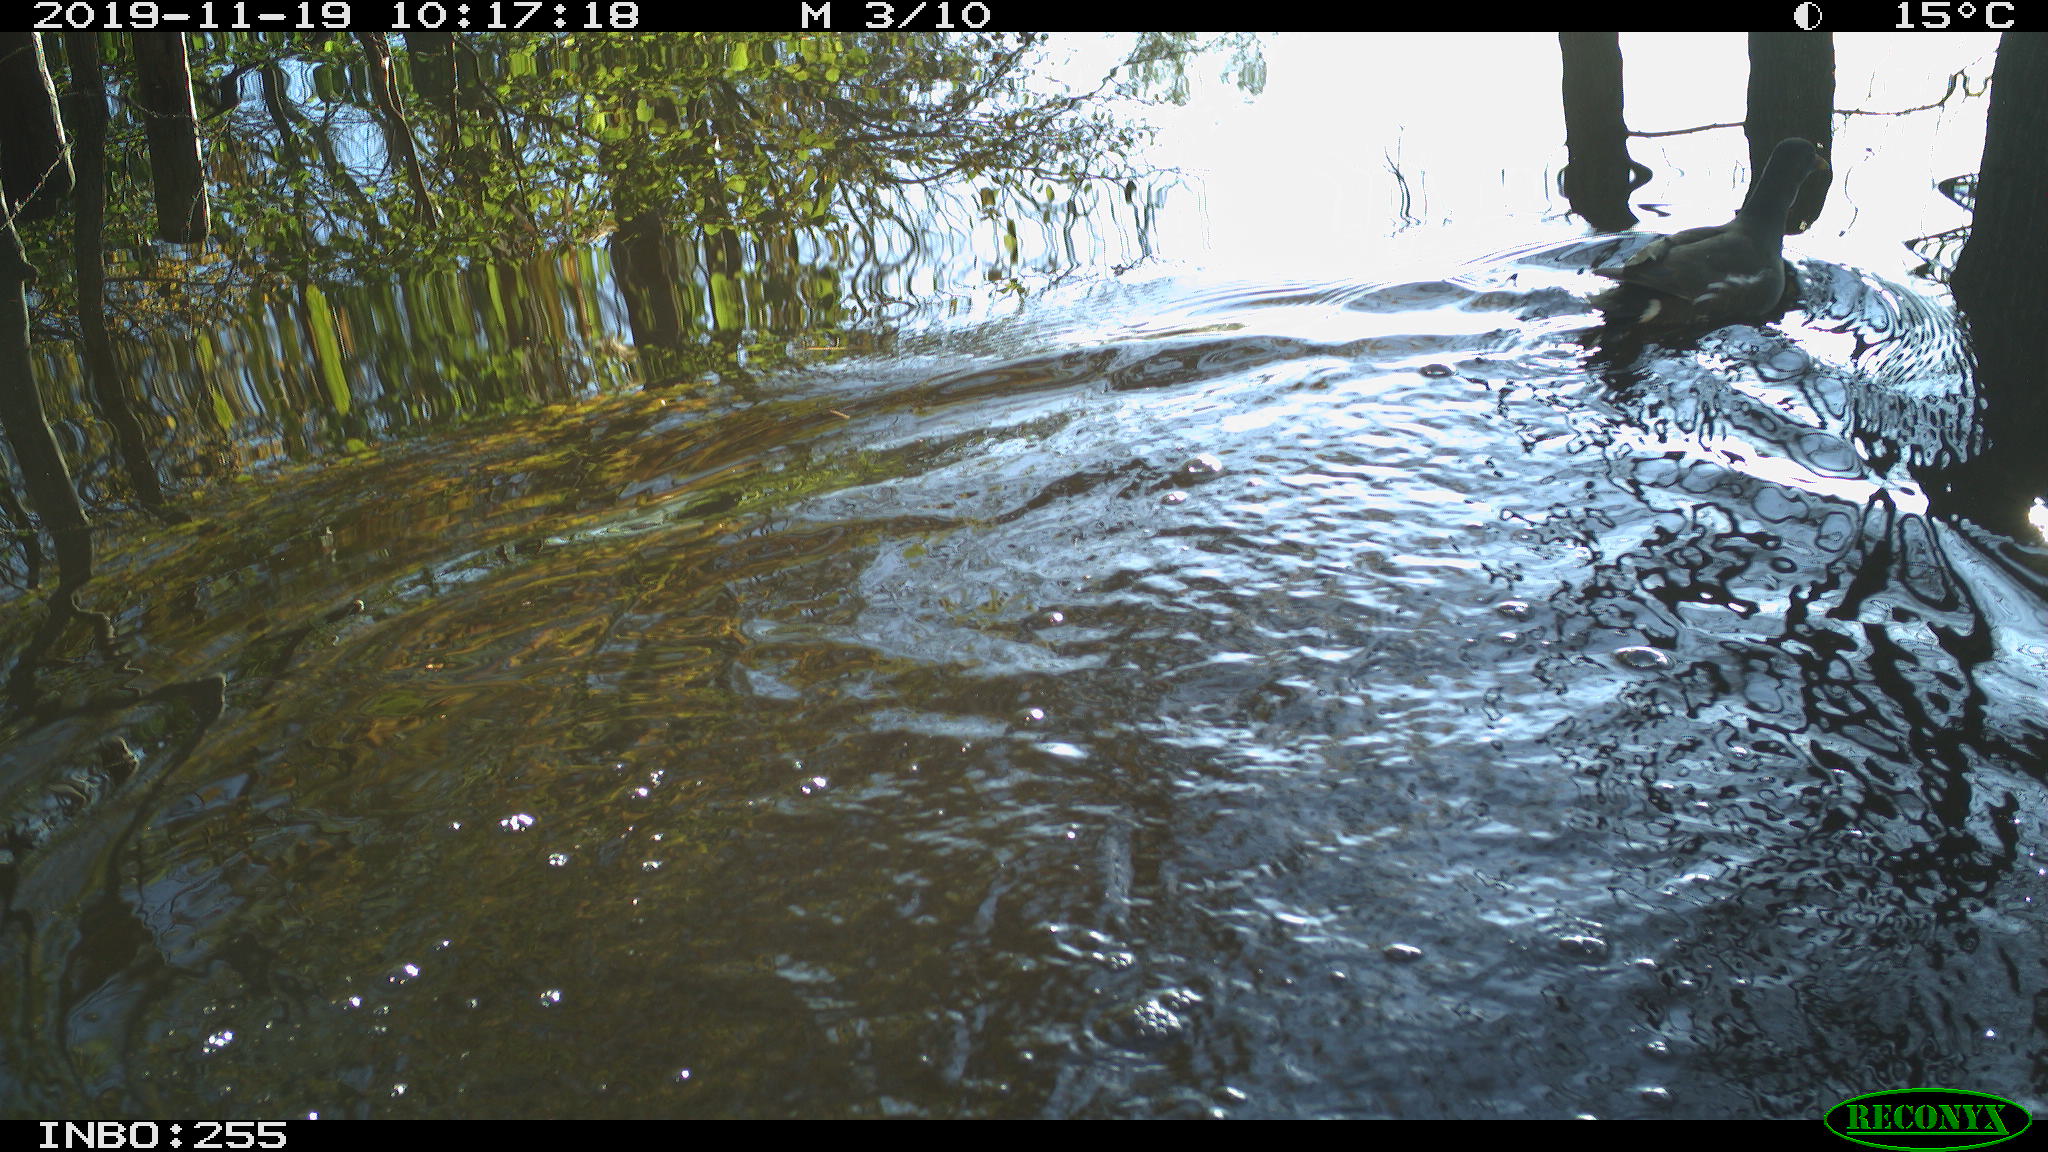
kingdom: Animalia
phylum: Chordata
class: Aves
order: Gruiformes
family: Rallidae
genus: Gallinula
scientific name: Gallinula chloropus
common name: Common moorhen
